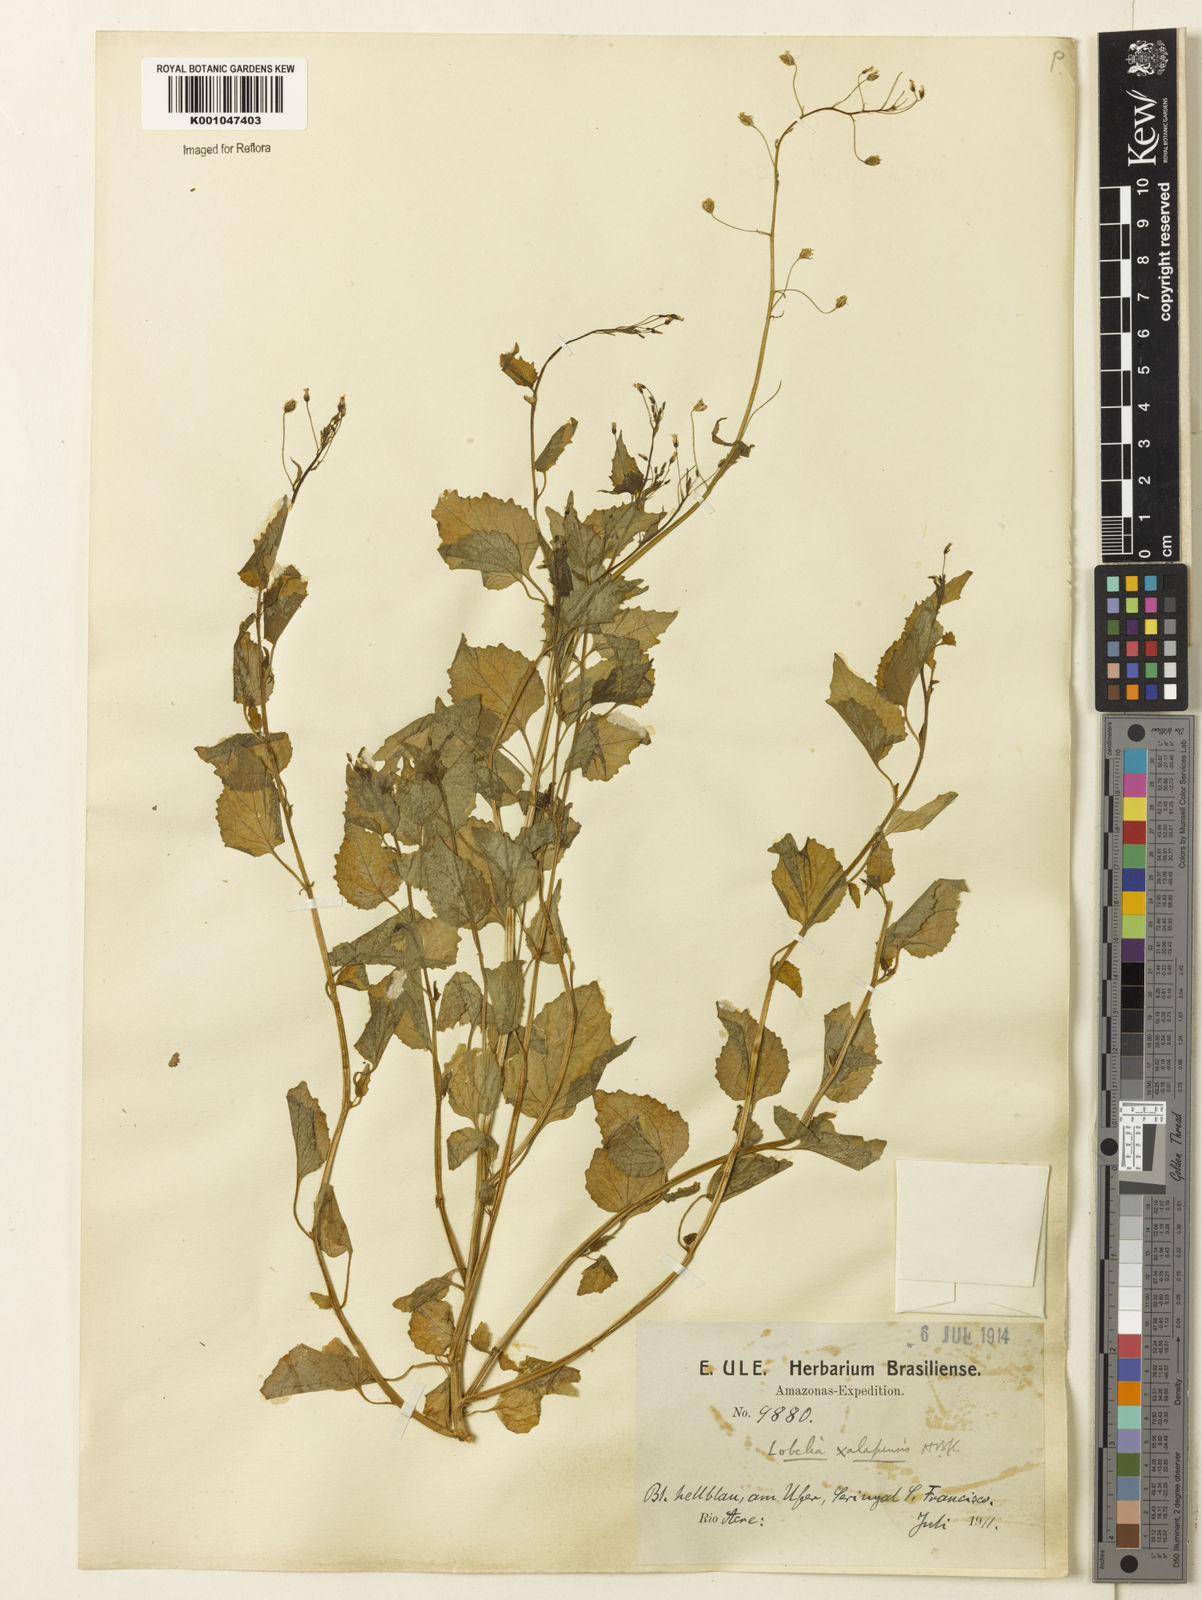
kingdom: Plantae
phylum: Tracheophyta
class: Magnoliopsida
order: Asterales
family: Campanulaceae
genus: Lobelia
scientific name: Lobelia xalapensis
